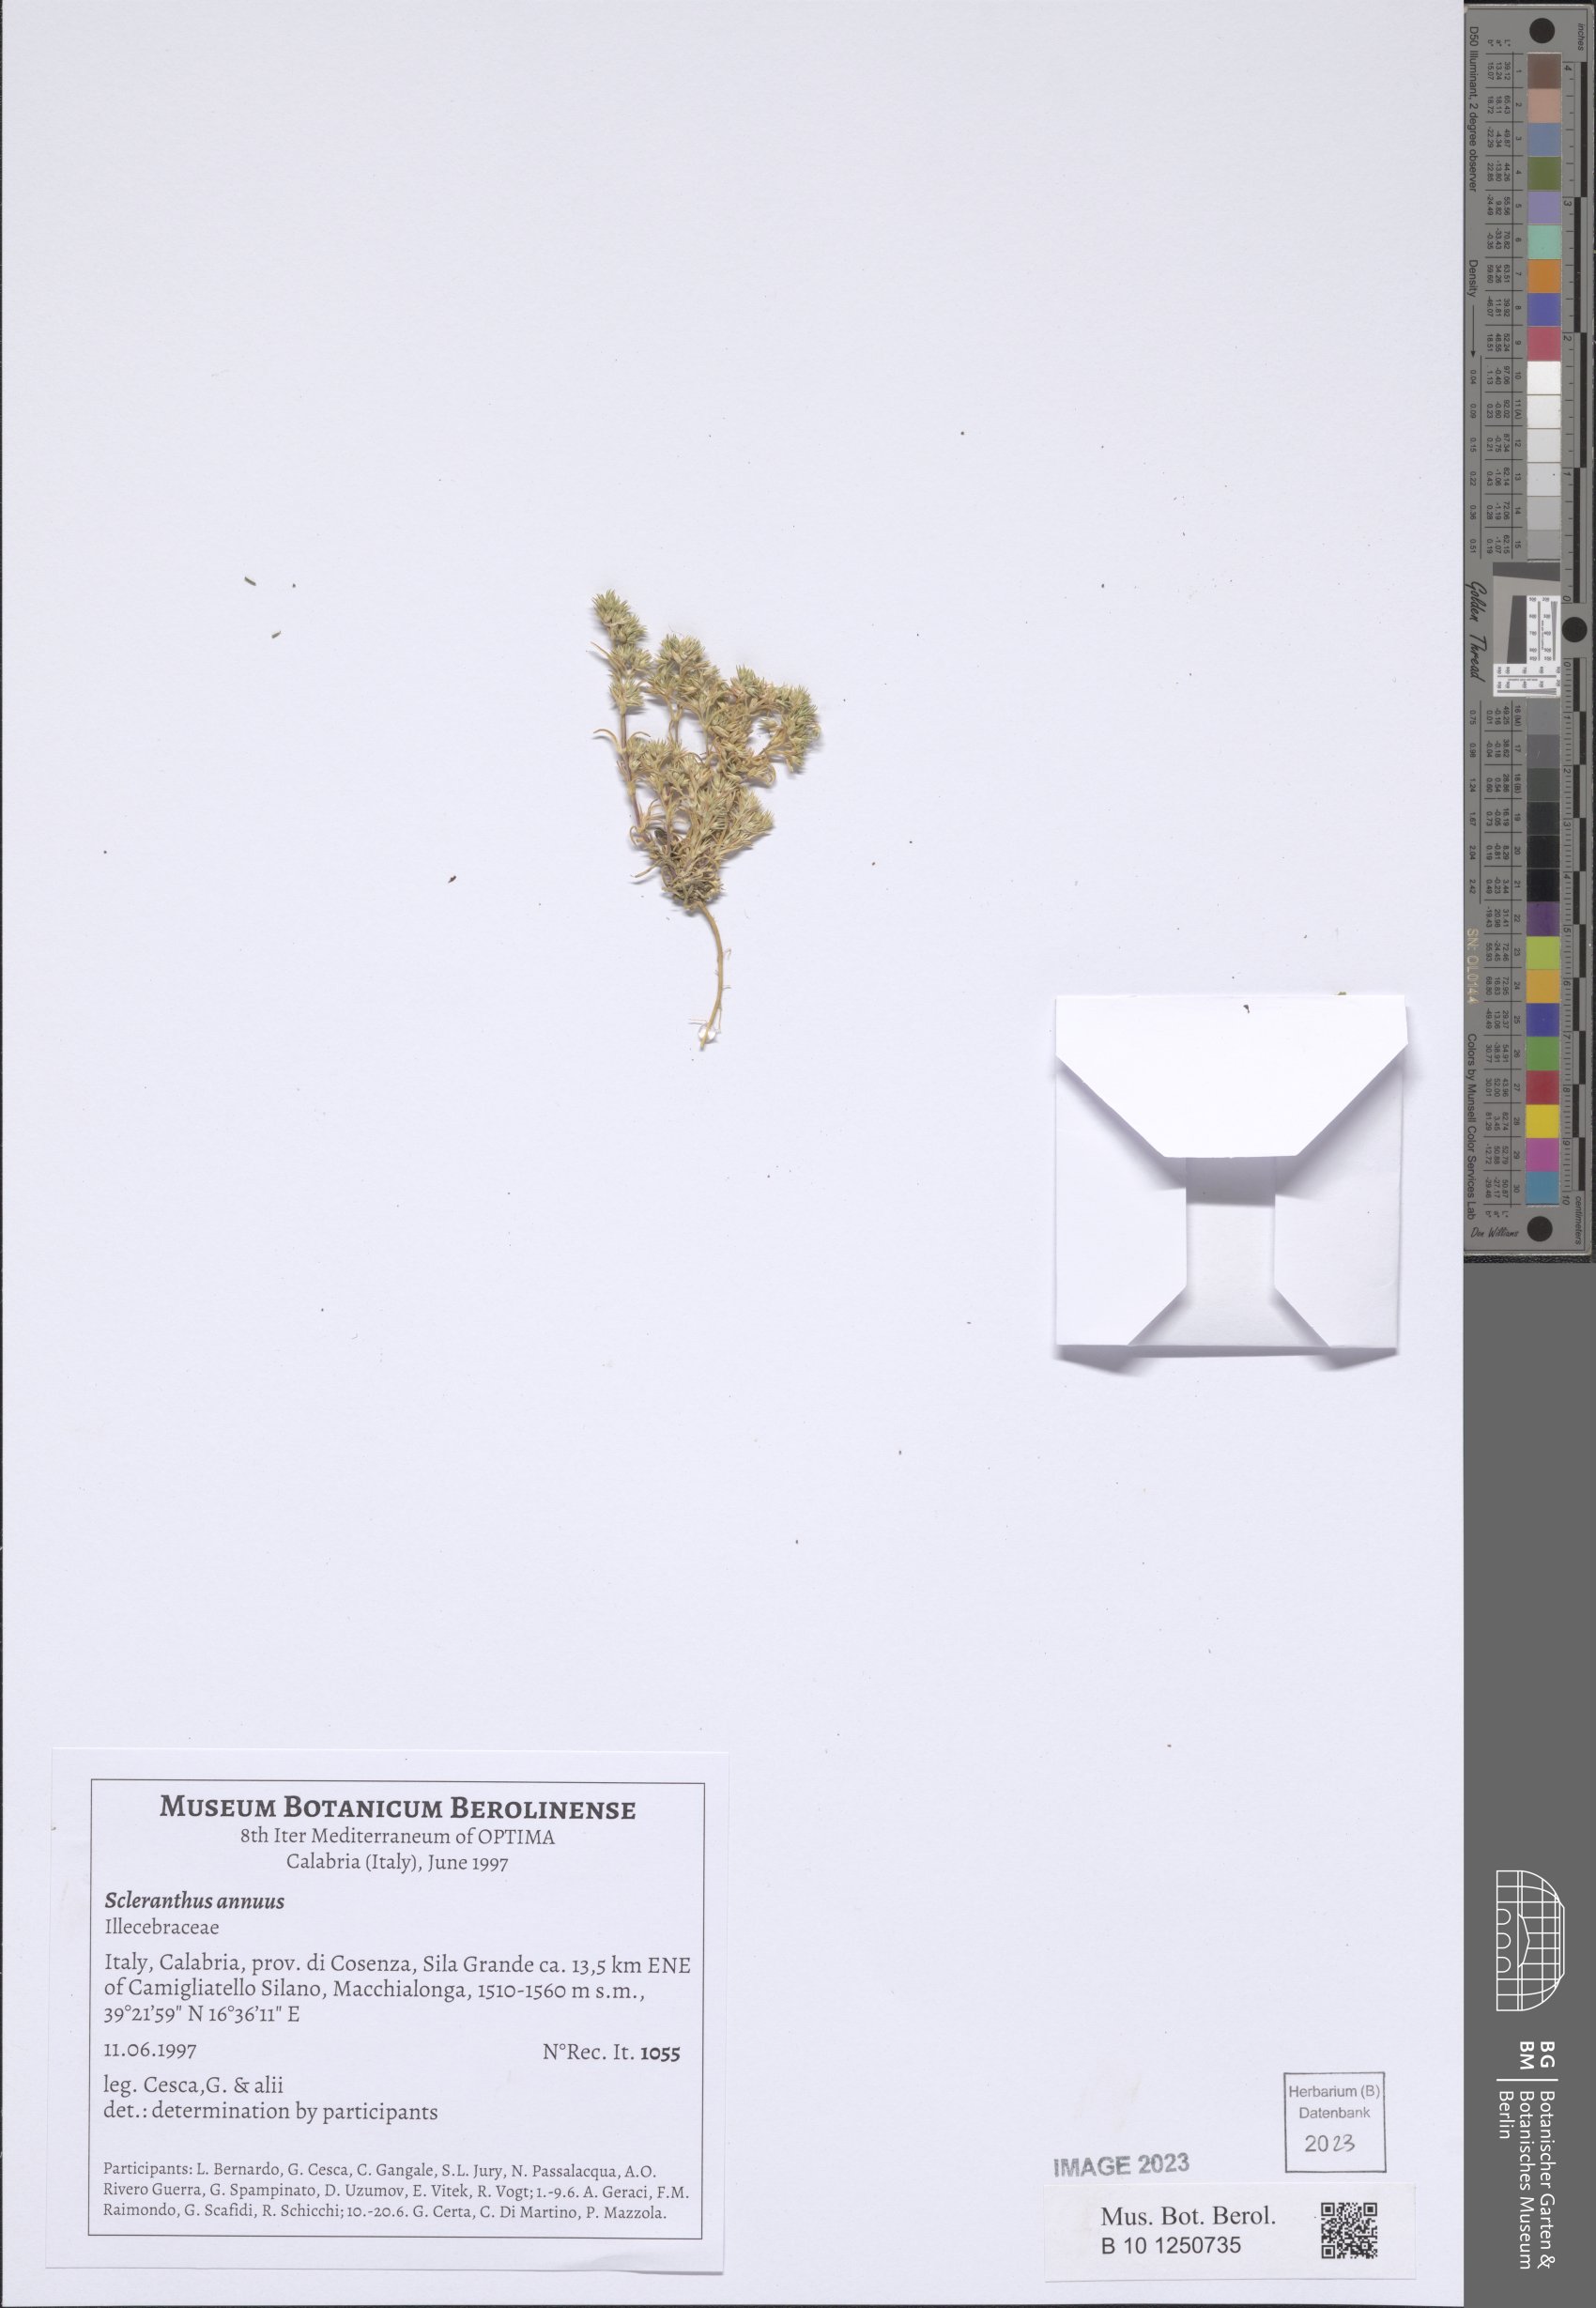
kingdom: Plantae
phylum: Tracheophyta
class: Magnoliopsida
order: Caryophyllales
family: Caryophyllaceae
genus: Scleranthus
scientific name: Scleranthus annuus
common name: Annual knawel
